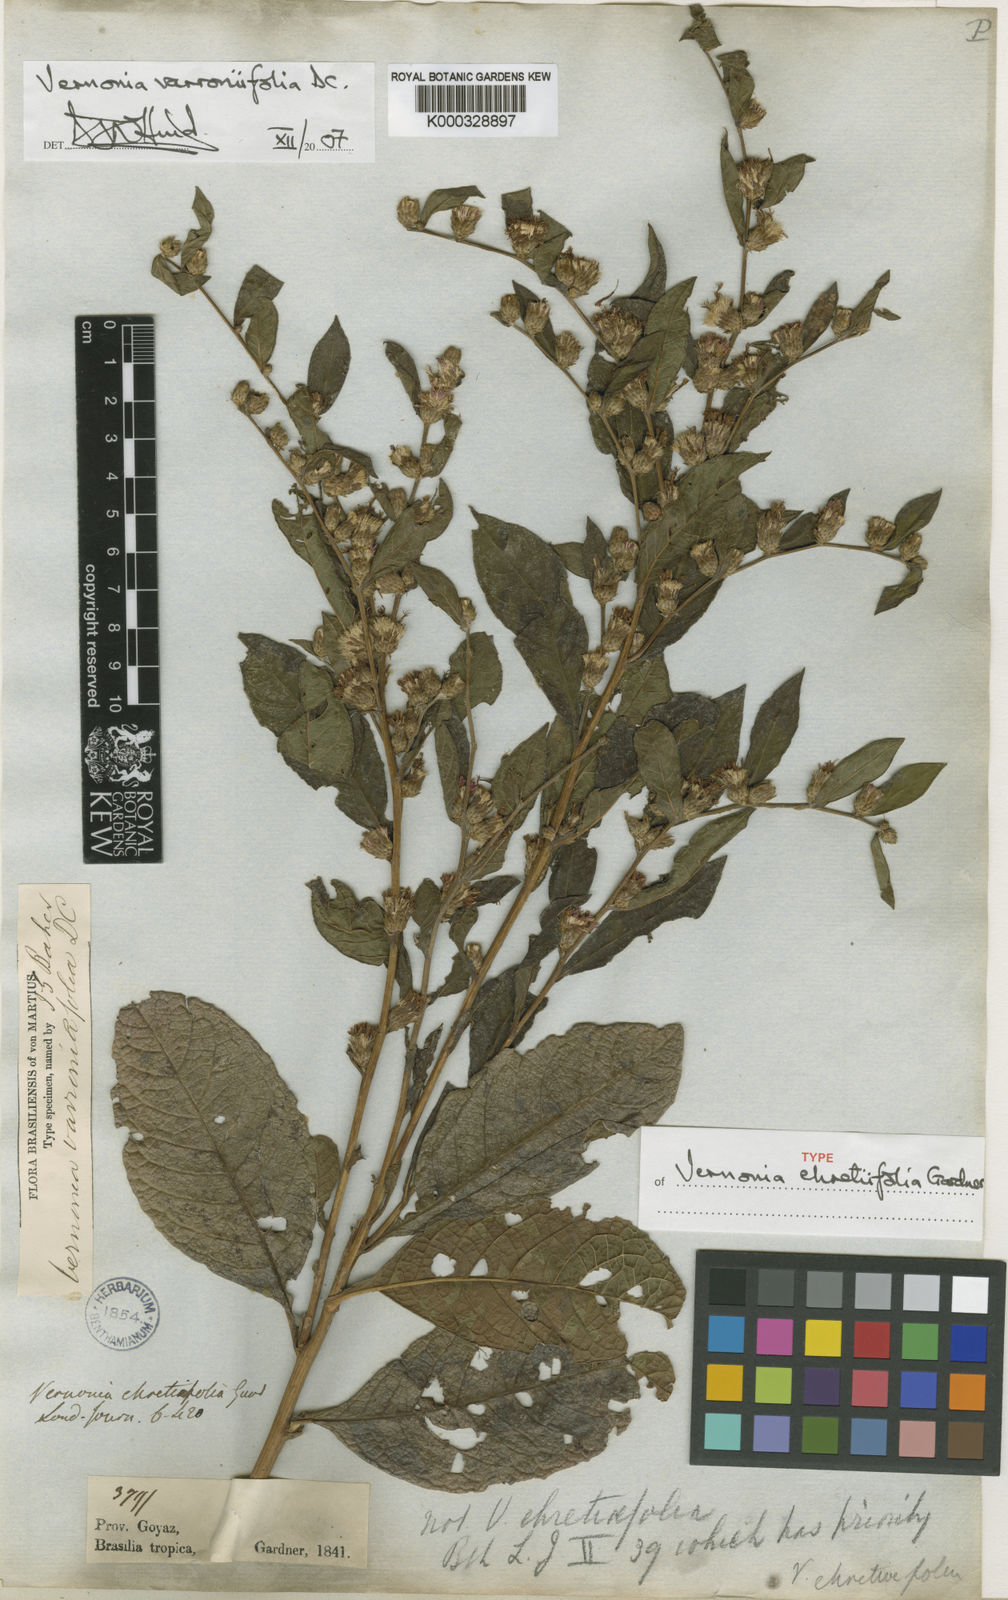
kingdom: Plantae
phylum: Tracheophyta
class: Magnoliopsida
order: Asterales
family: Asteraceae
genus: Lessingianthus
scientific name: Lessingianthus varroniifolius
